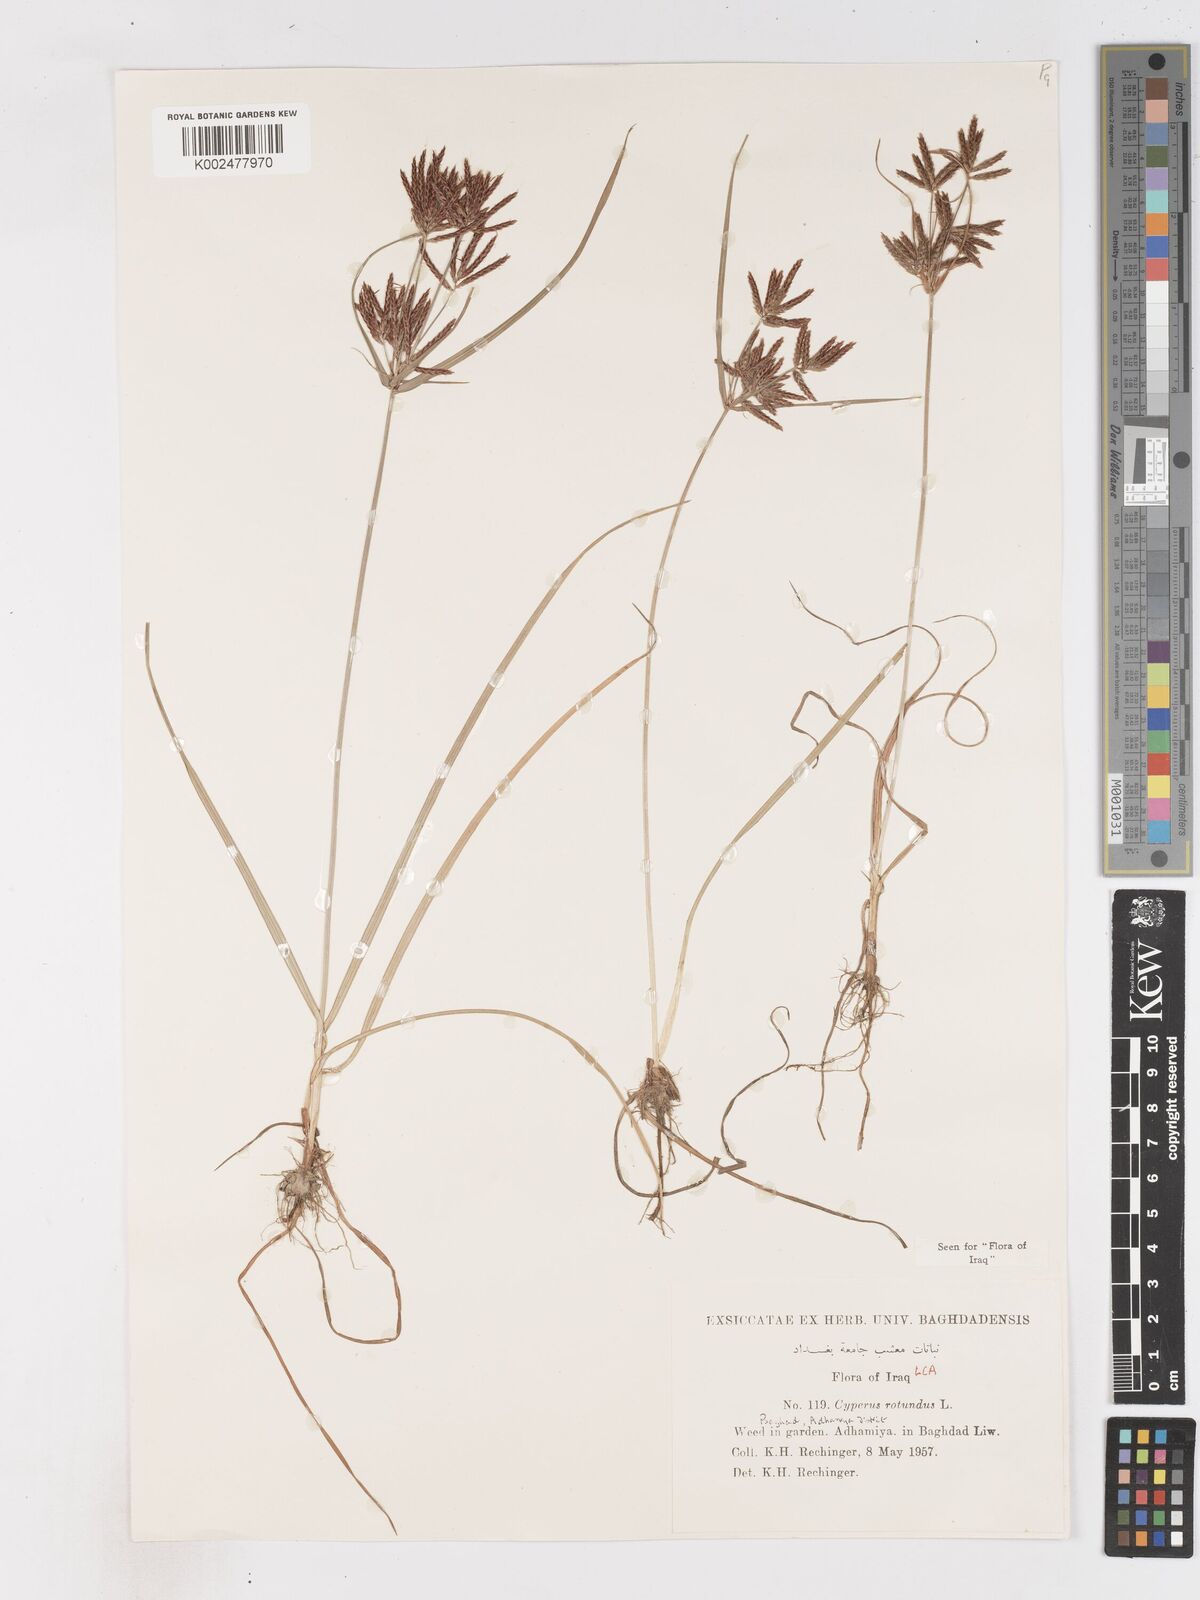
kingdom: Plantae
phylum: Tracheophyta
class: Liliopsida
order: Poales
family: Cyperaceae
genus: Cyperus
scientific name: Cyperus rotundus
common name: Nutgrass
